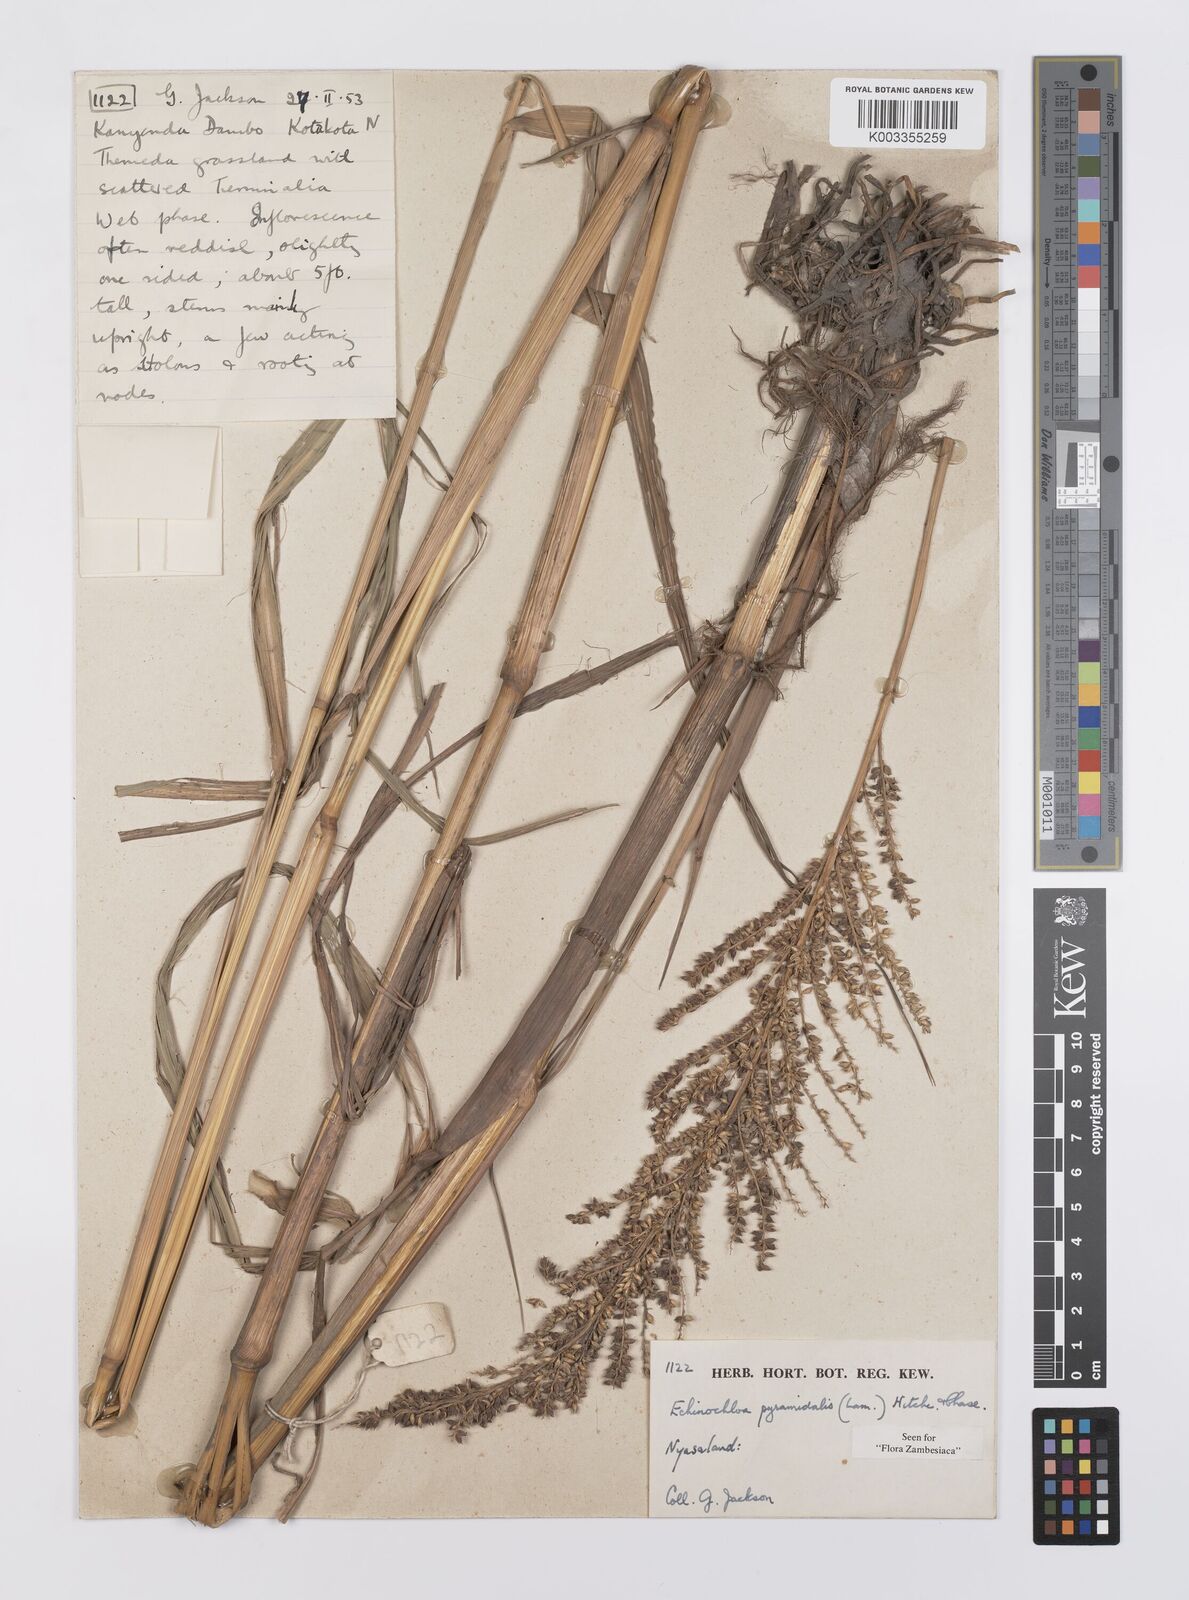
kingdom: Plantae
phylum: Tracheophyta
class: Liliopsida
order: Poales
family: Poaceae
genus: Echinochloa
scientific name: Echinochloa pyramidalis
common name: Antelope grass
